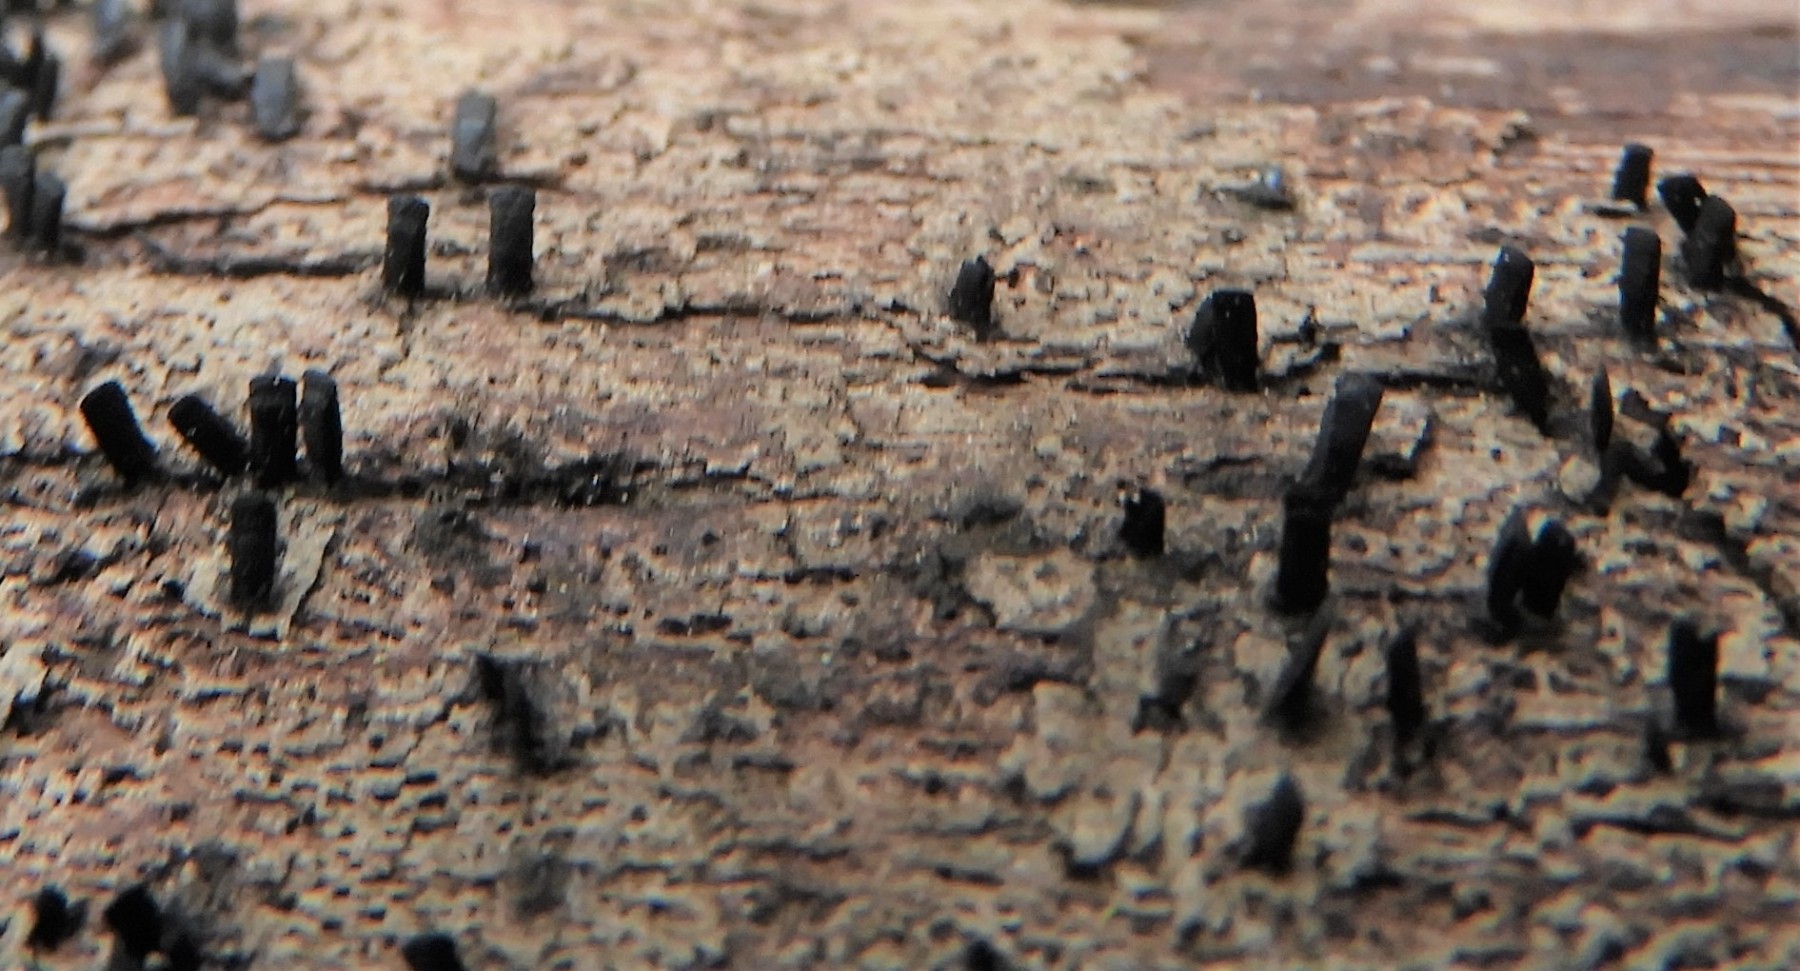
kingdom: Fungi
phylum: Ascomycota
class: Eurotiomycetes
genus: Glyphium
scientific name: Glyphium elatum
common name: kuløkse
